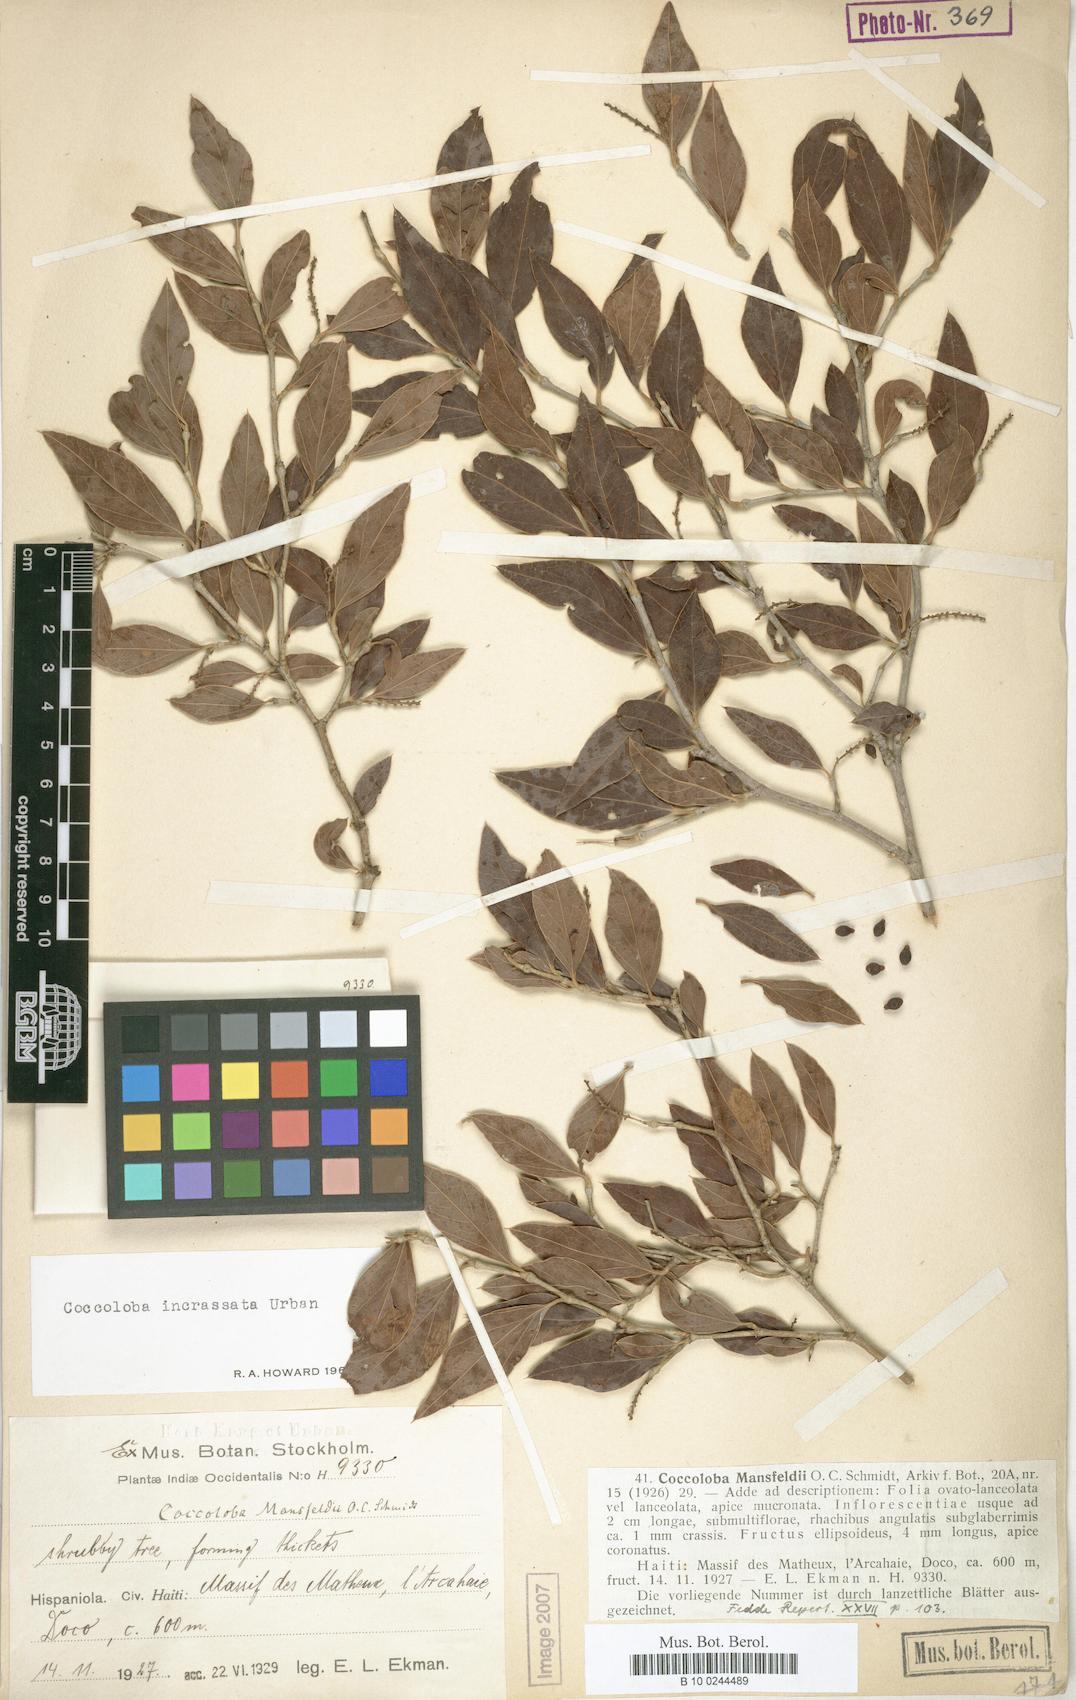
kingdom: Plantae
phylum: Tracheophyta
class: Magnoliopsida
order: Caryophyllales
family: Polygonaceae
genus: Coccoloba
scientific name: Coccoloba incrassata
